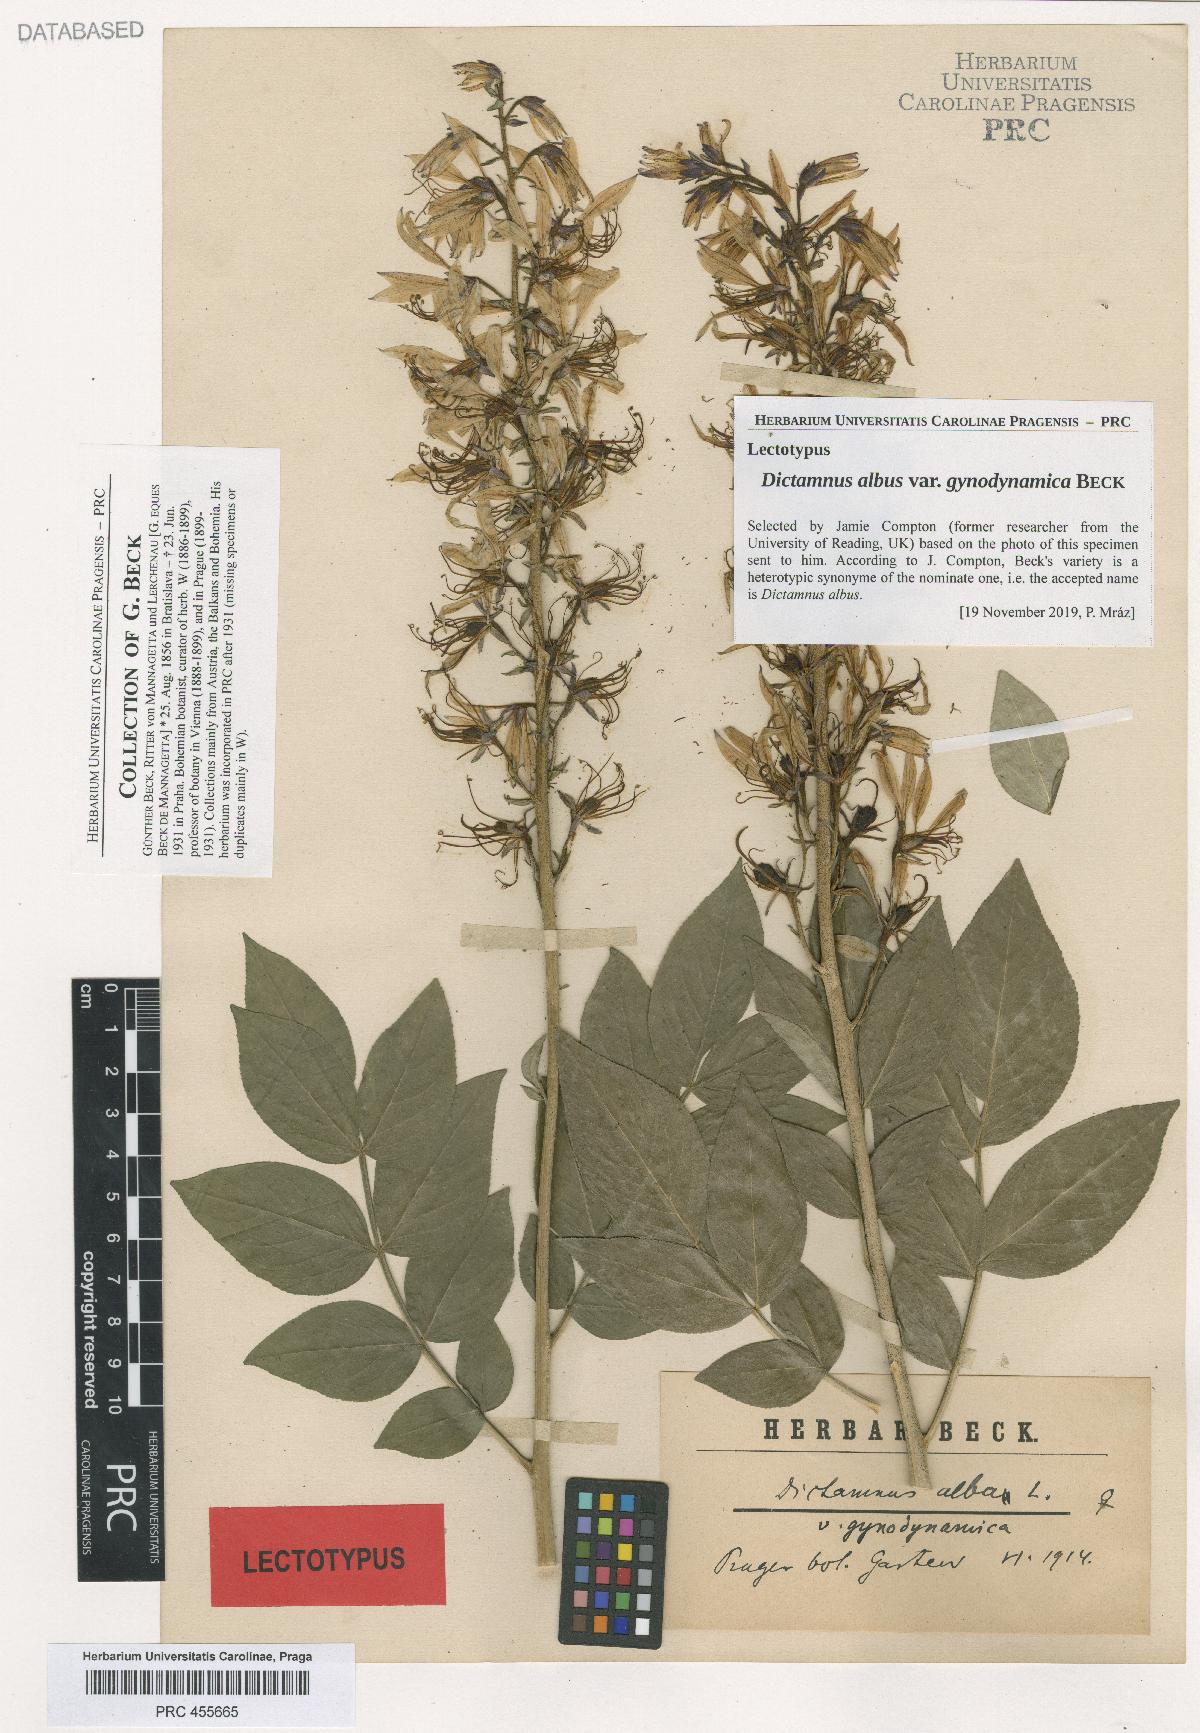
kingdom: Plantae
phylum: Tracheophyta
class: Magnoliopsida
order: Sapindales
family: Rutaceae
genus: Dictamnus
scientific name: Dictamnus albus
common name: Gasplant
